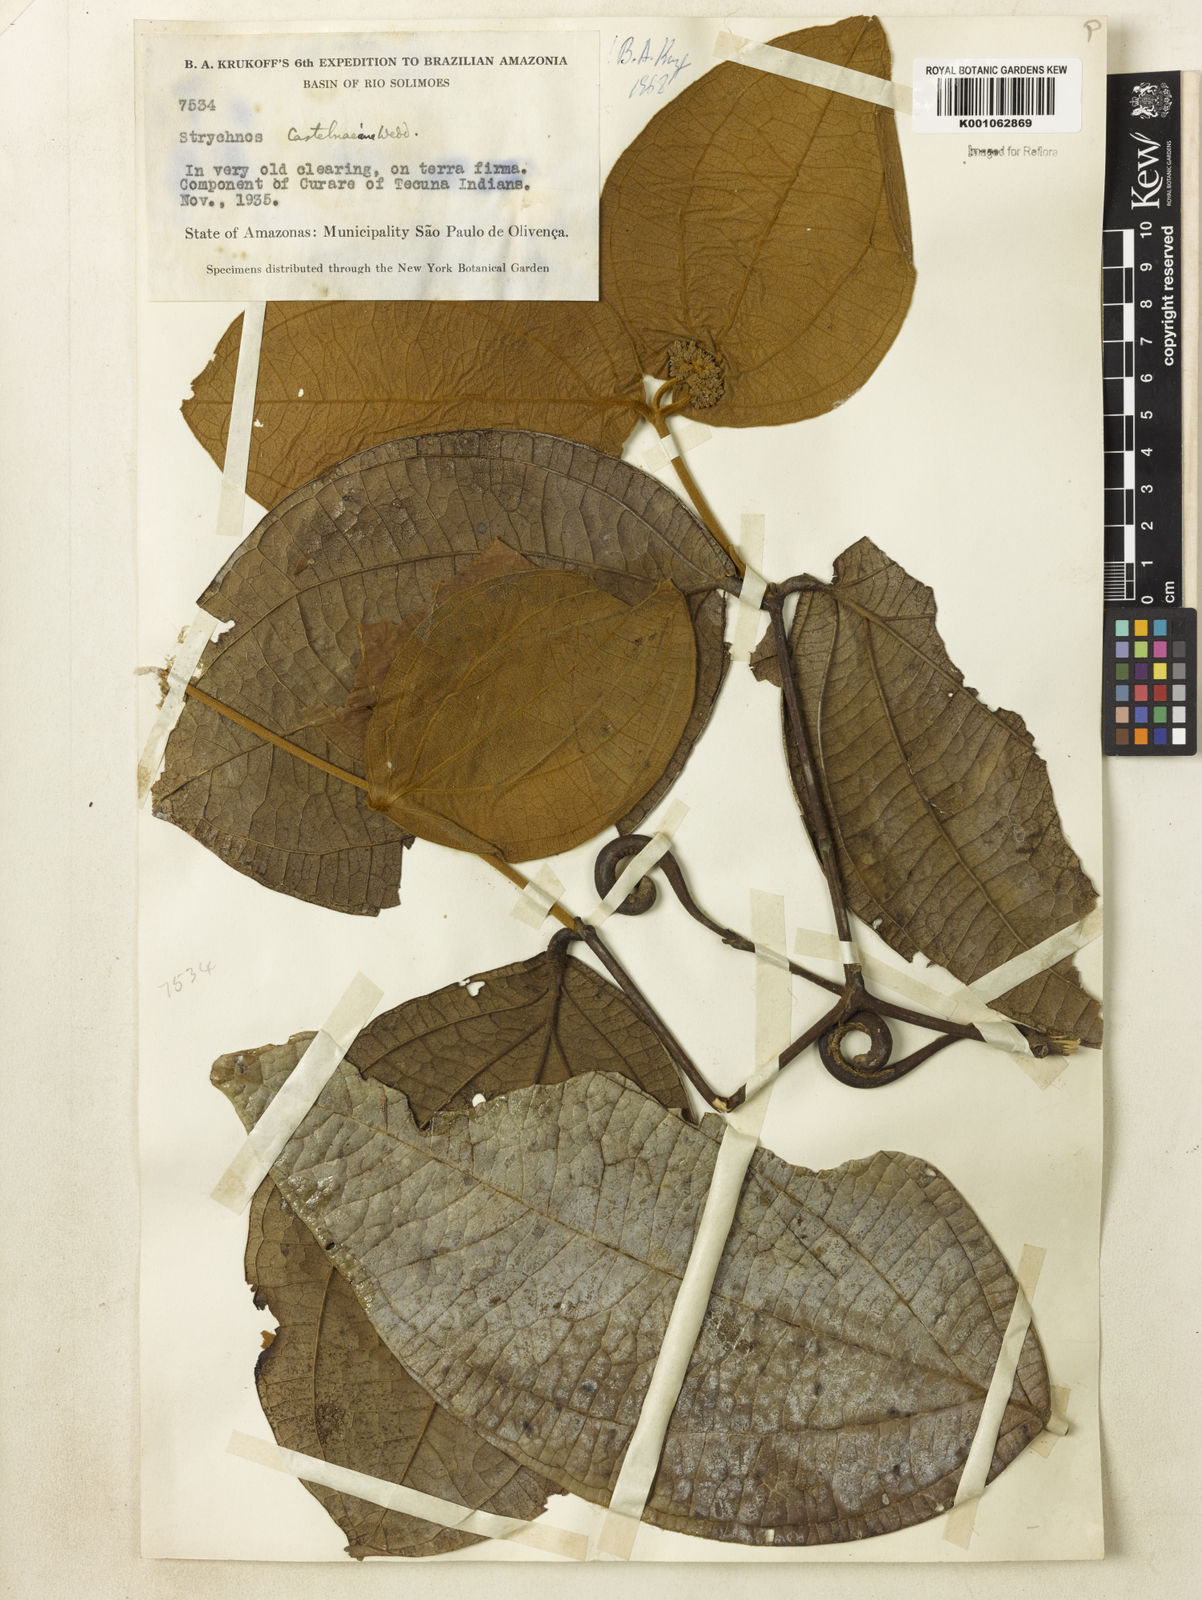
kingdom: Plantae
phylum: Tracheophyta
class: Magnoliopsida
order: Gentianales
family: Loganiaceae
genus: Strychnos
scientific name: Strychnos
